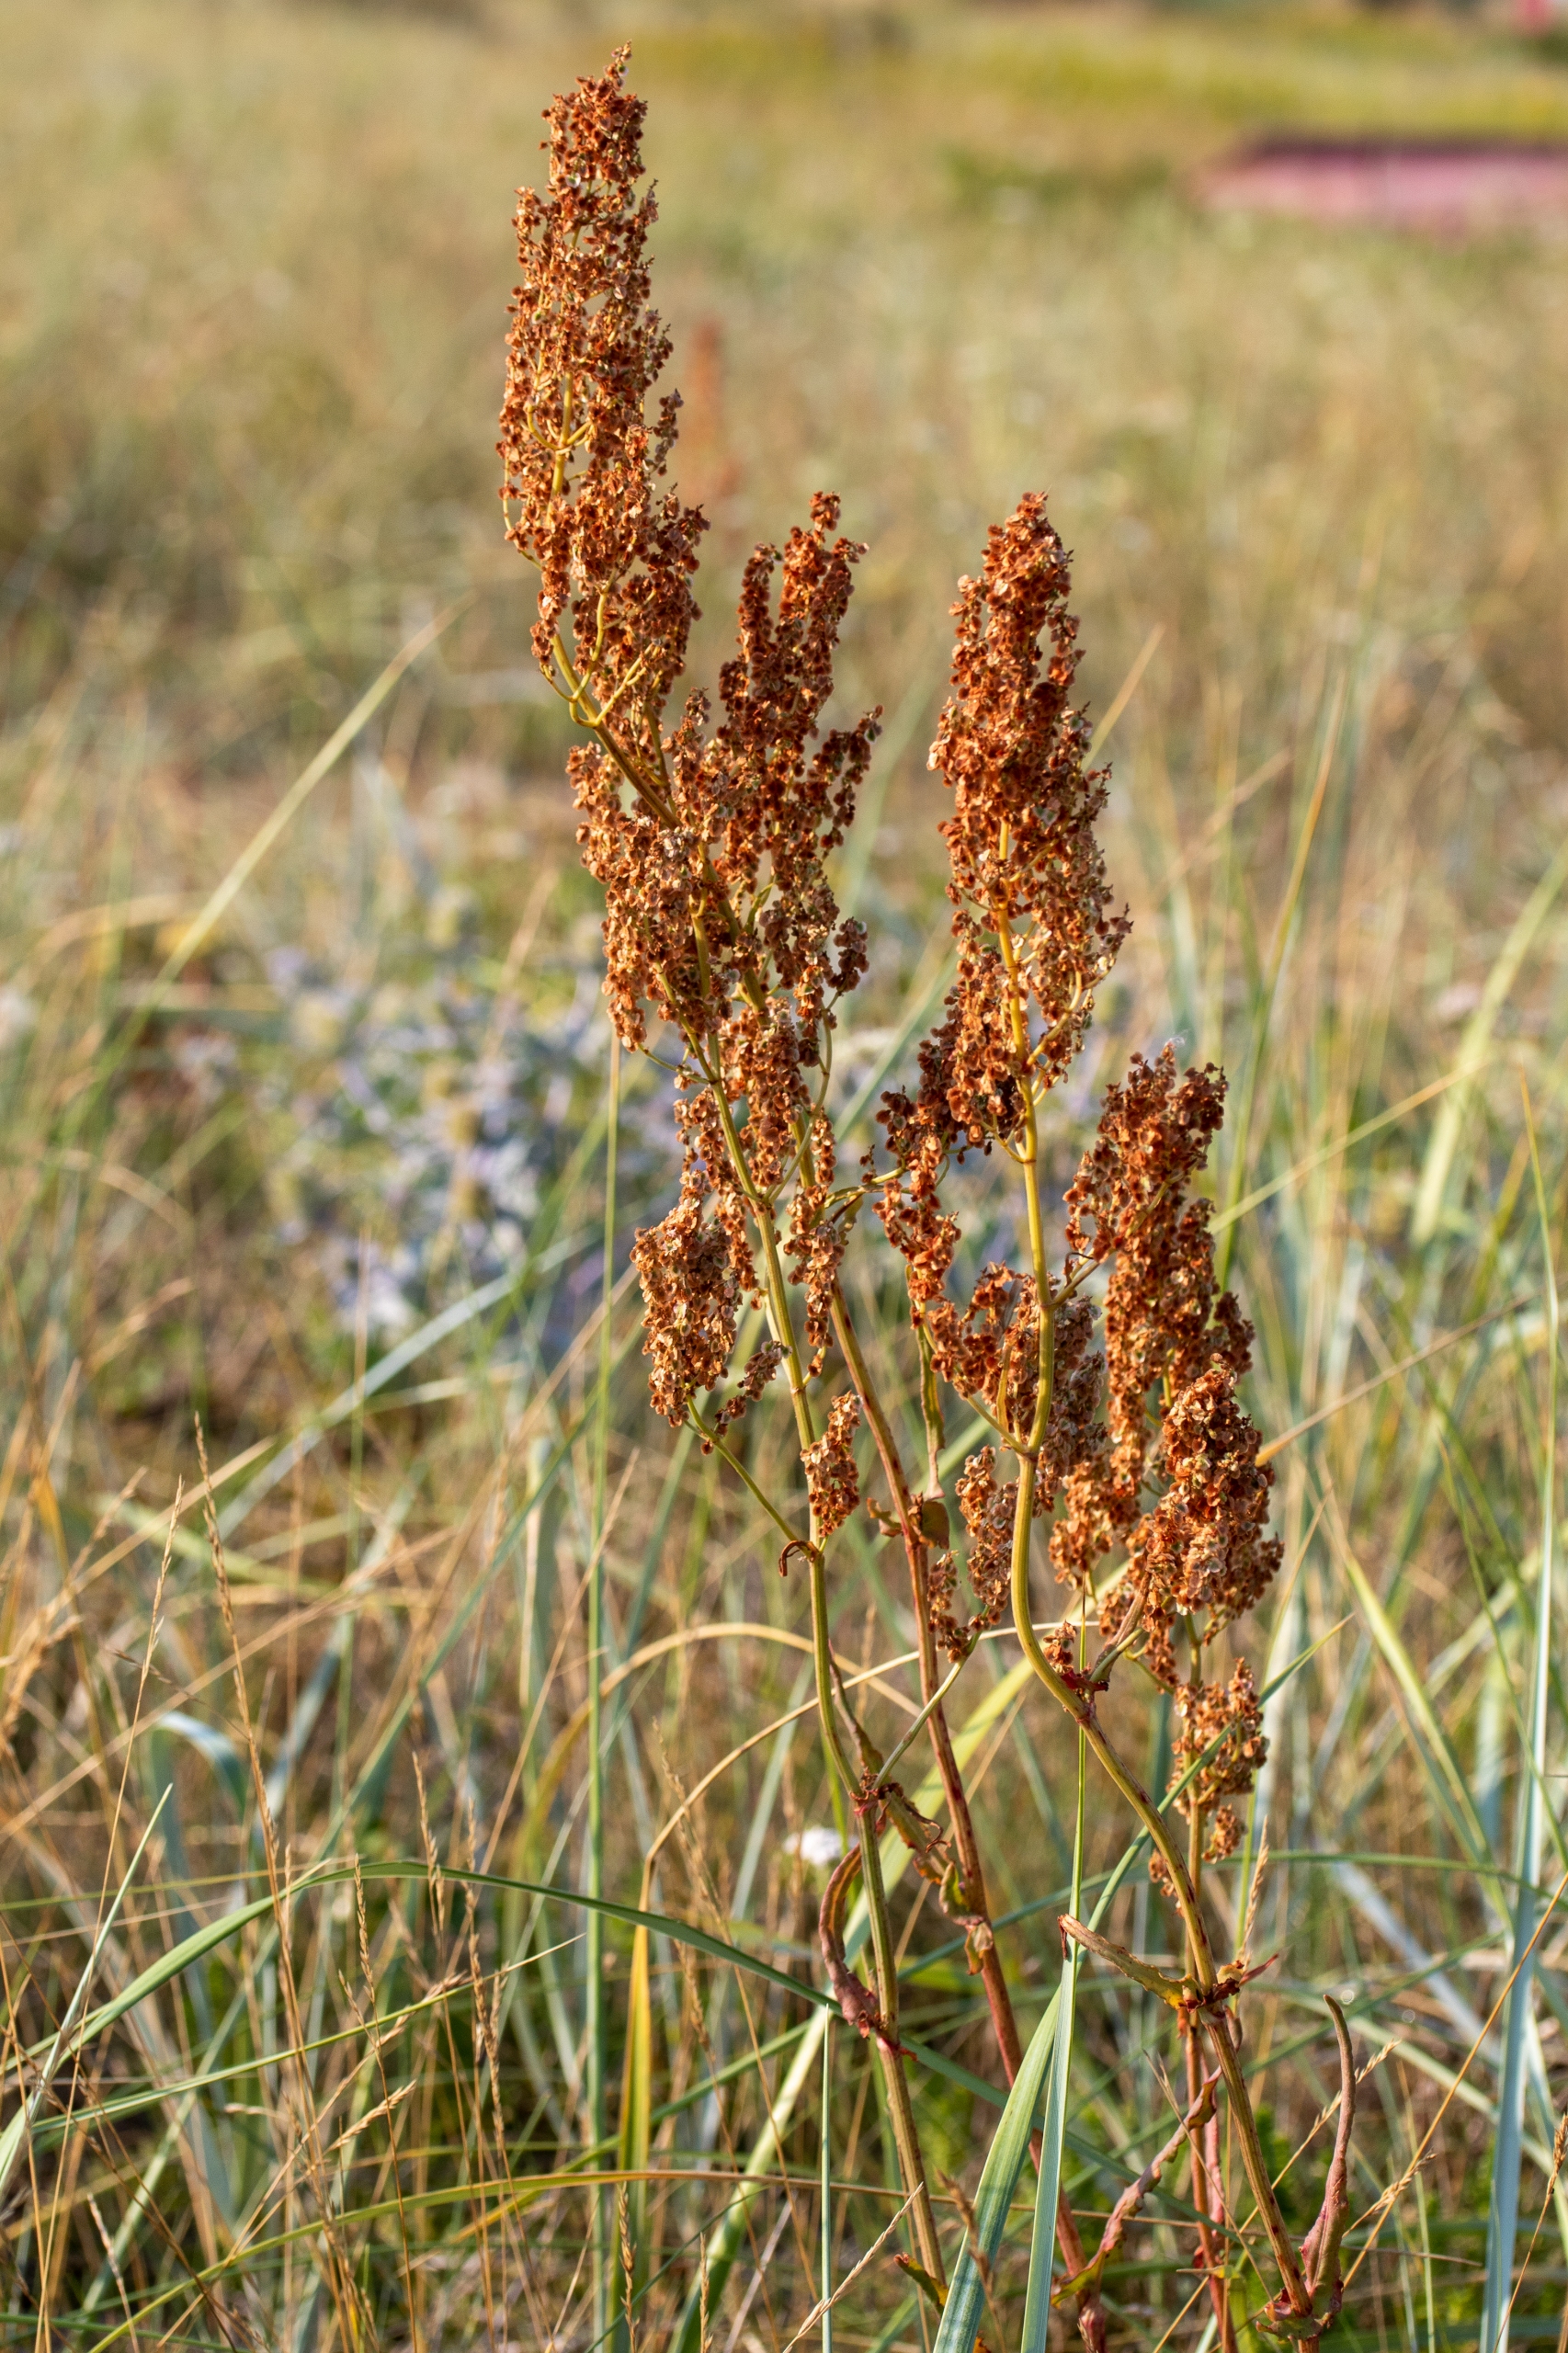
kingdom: Plantae
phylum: Tracheophyta
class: Magnoliopsida
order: Caryophyllales
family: Polygonaceae
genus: Rumex
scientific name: Rumex thyrsiflorus
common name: Dusk-syre
